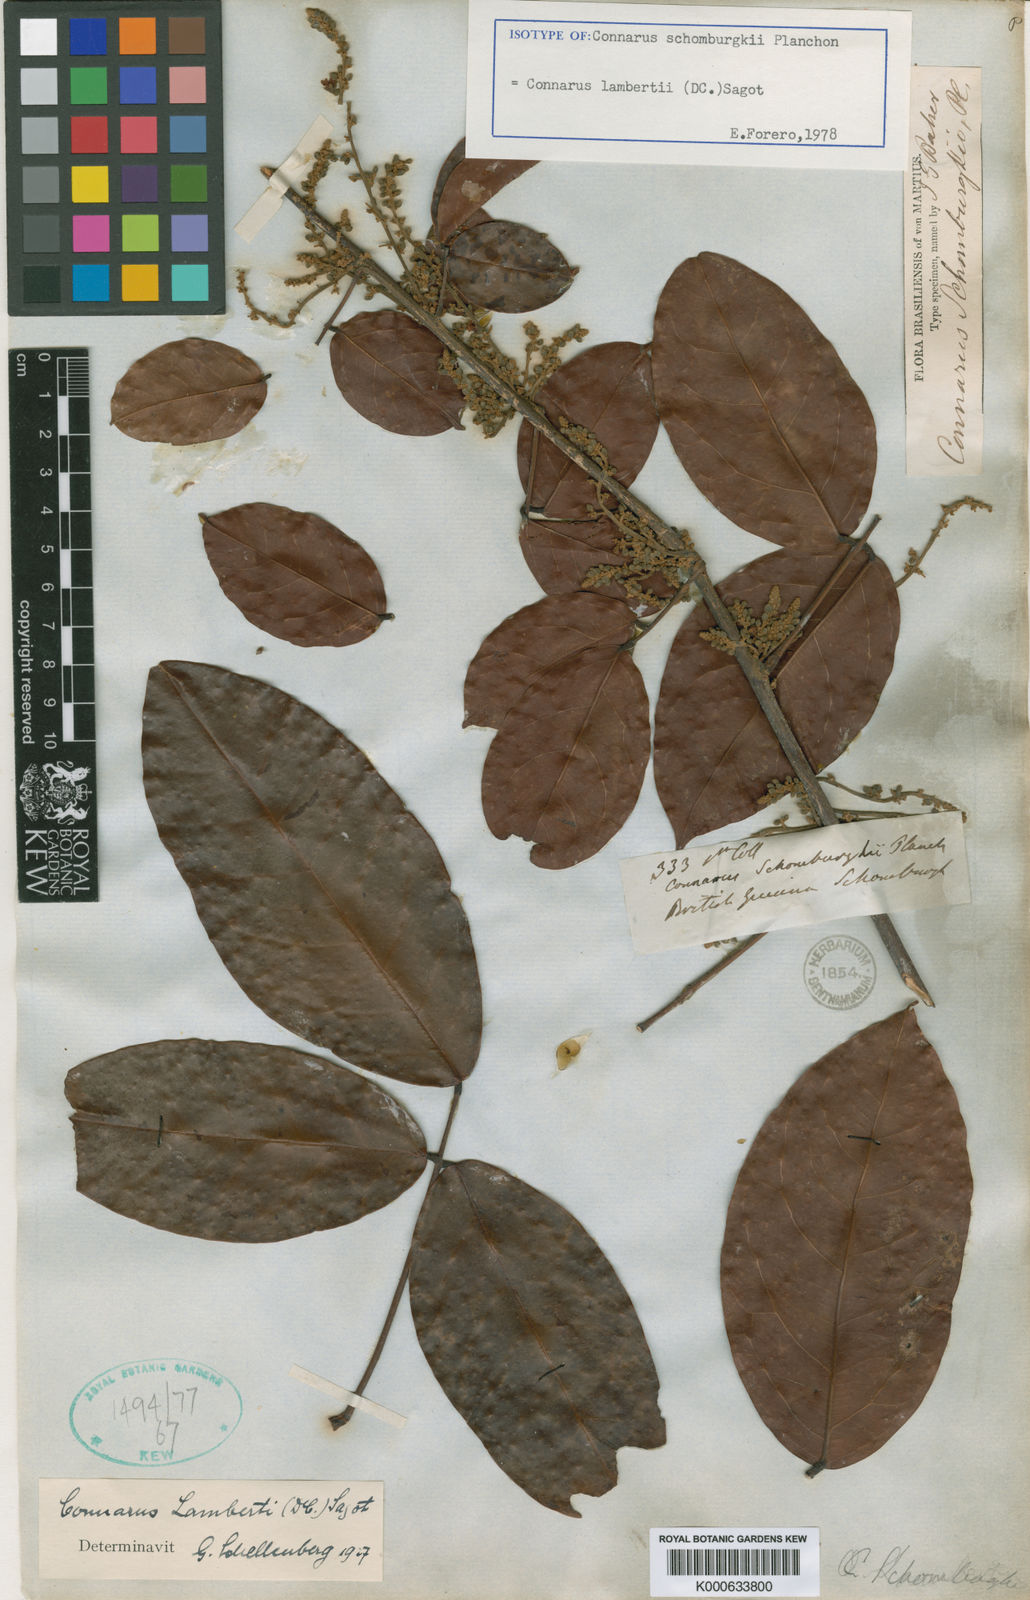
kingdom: Plantae
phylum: Tracheophyta
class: Magnoliopsida
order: Oxalidales
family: Connaraceae
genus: Connarus
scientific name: Connarus
